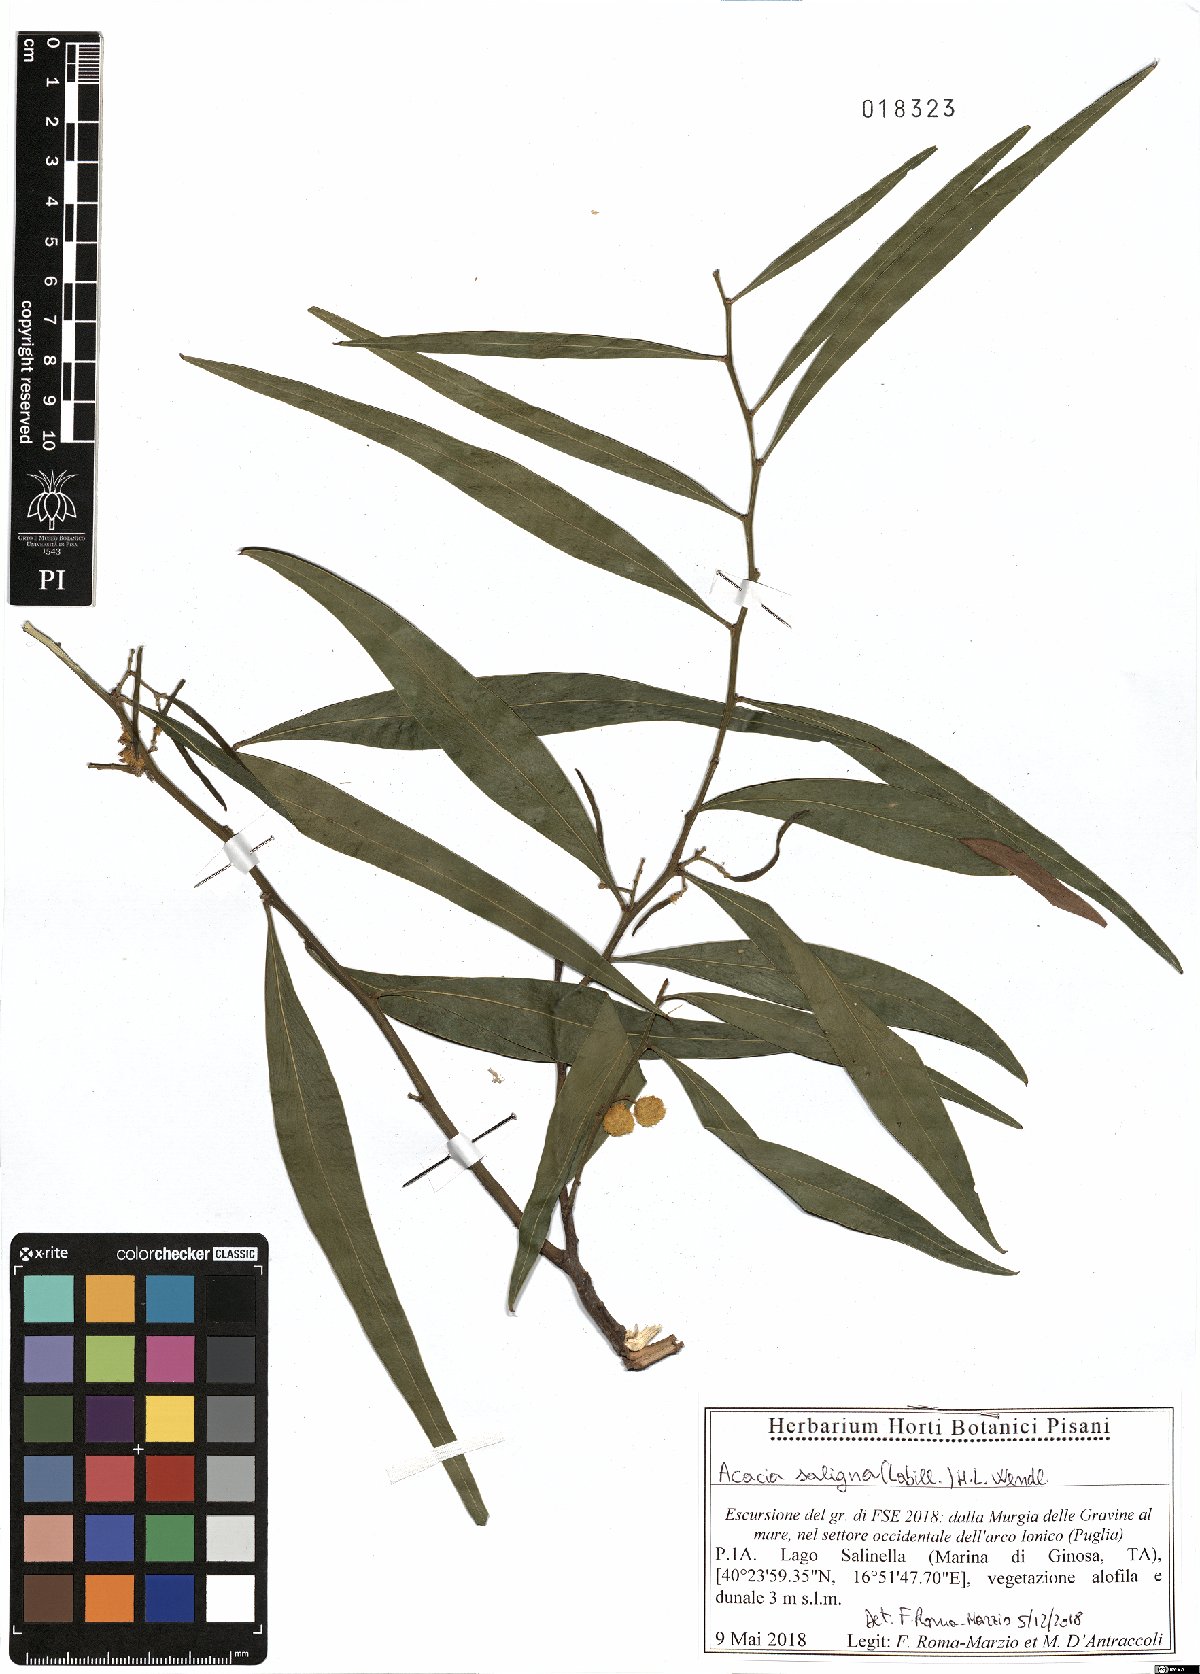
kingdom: Plantae
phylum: Tracheophyta
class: Magnoliopsida
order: Fabales
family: Fabaceae
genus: Acacia
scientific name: Acacia saligna
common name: Orange wattle
